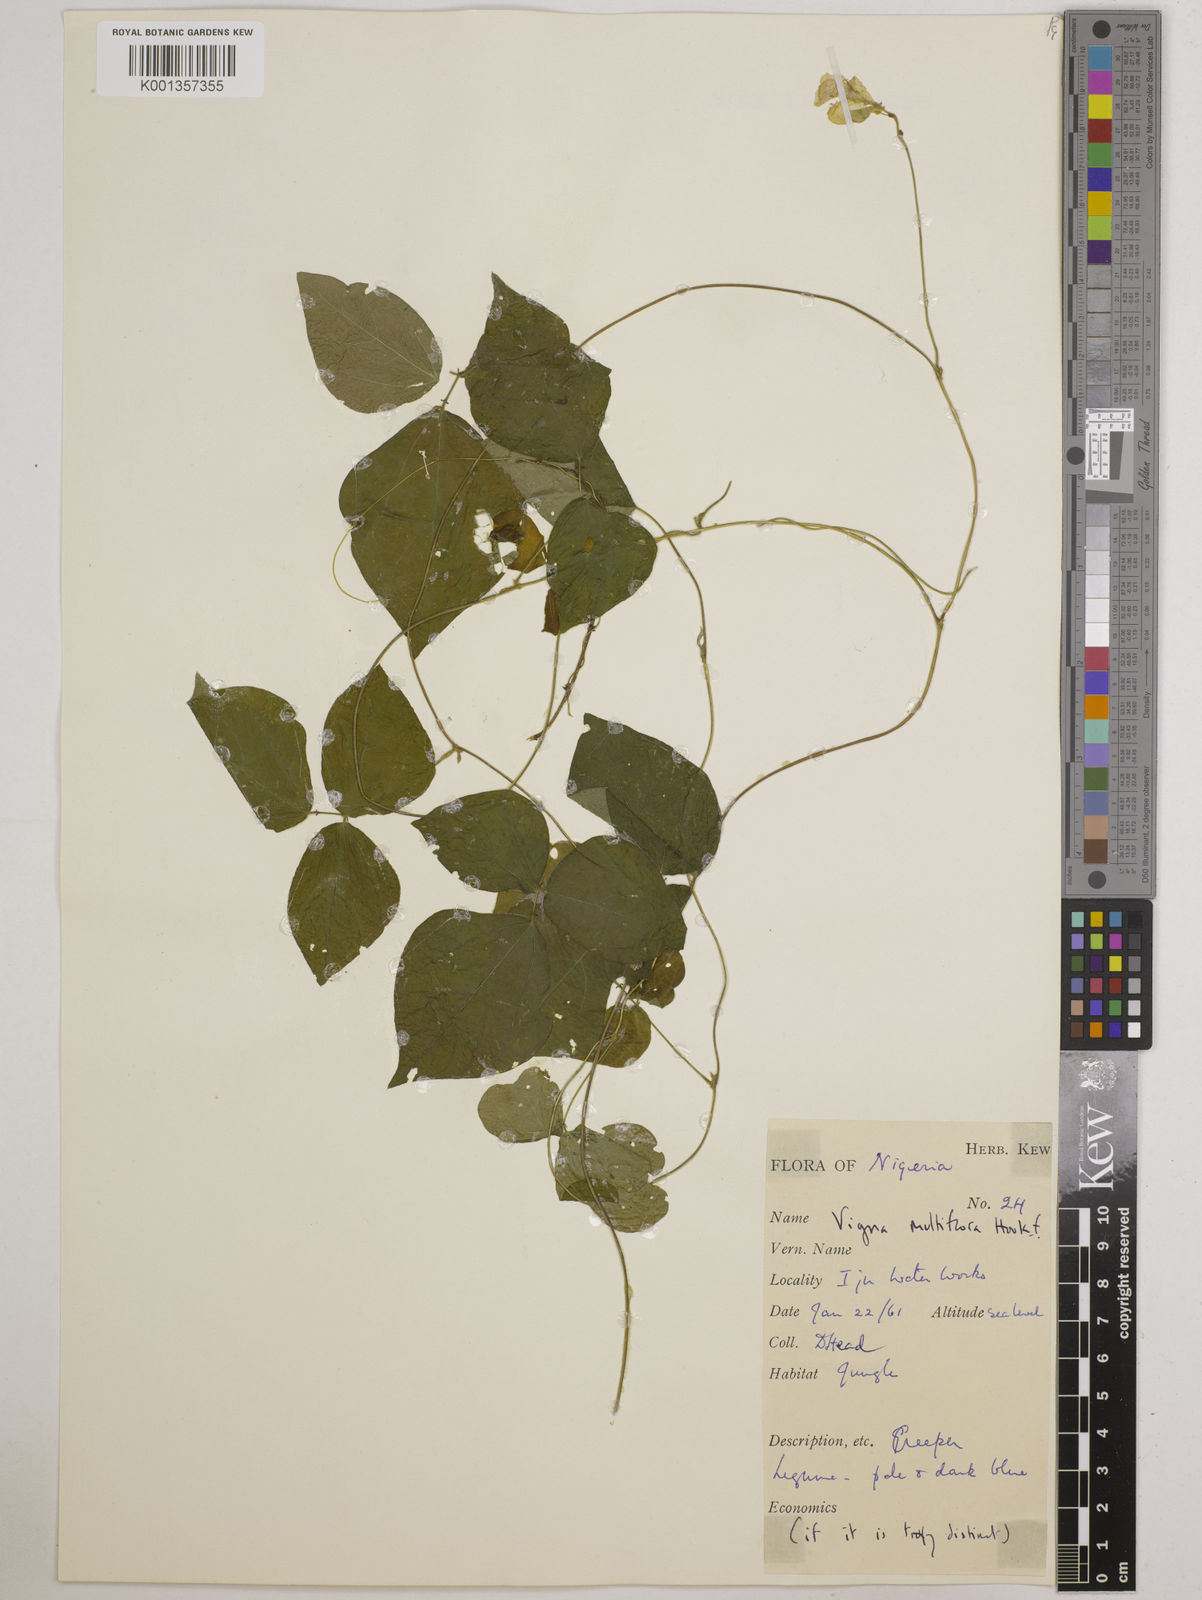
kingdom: Plantae
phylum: Tracheophyta
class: Magnoliopsida
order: Fabales
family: Fabaceae
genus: Vigna
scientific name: Vigna gracilis
